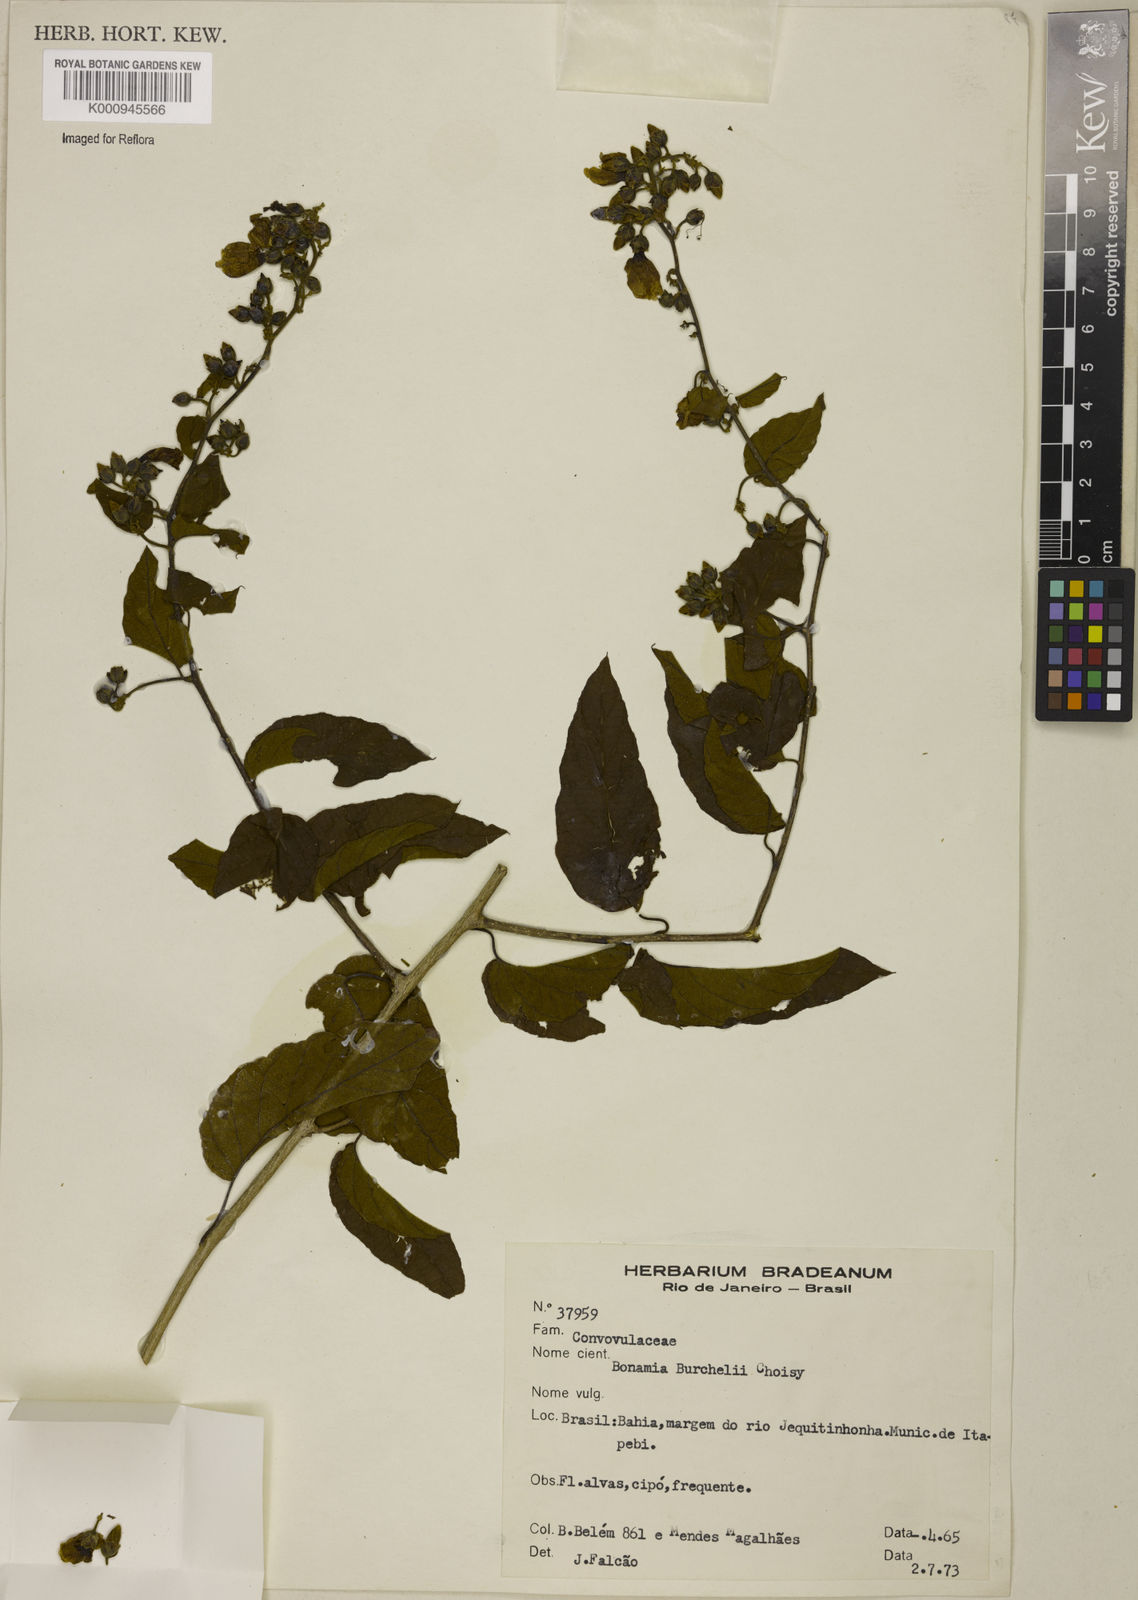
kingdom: Plantae
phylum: Tracheophyta
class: Magnoliopsida
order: Solanales
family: Convolvulaceae
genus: Bonamia
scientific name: Bonamia agrostopolis
